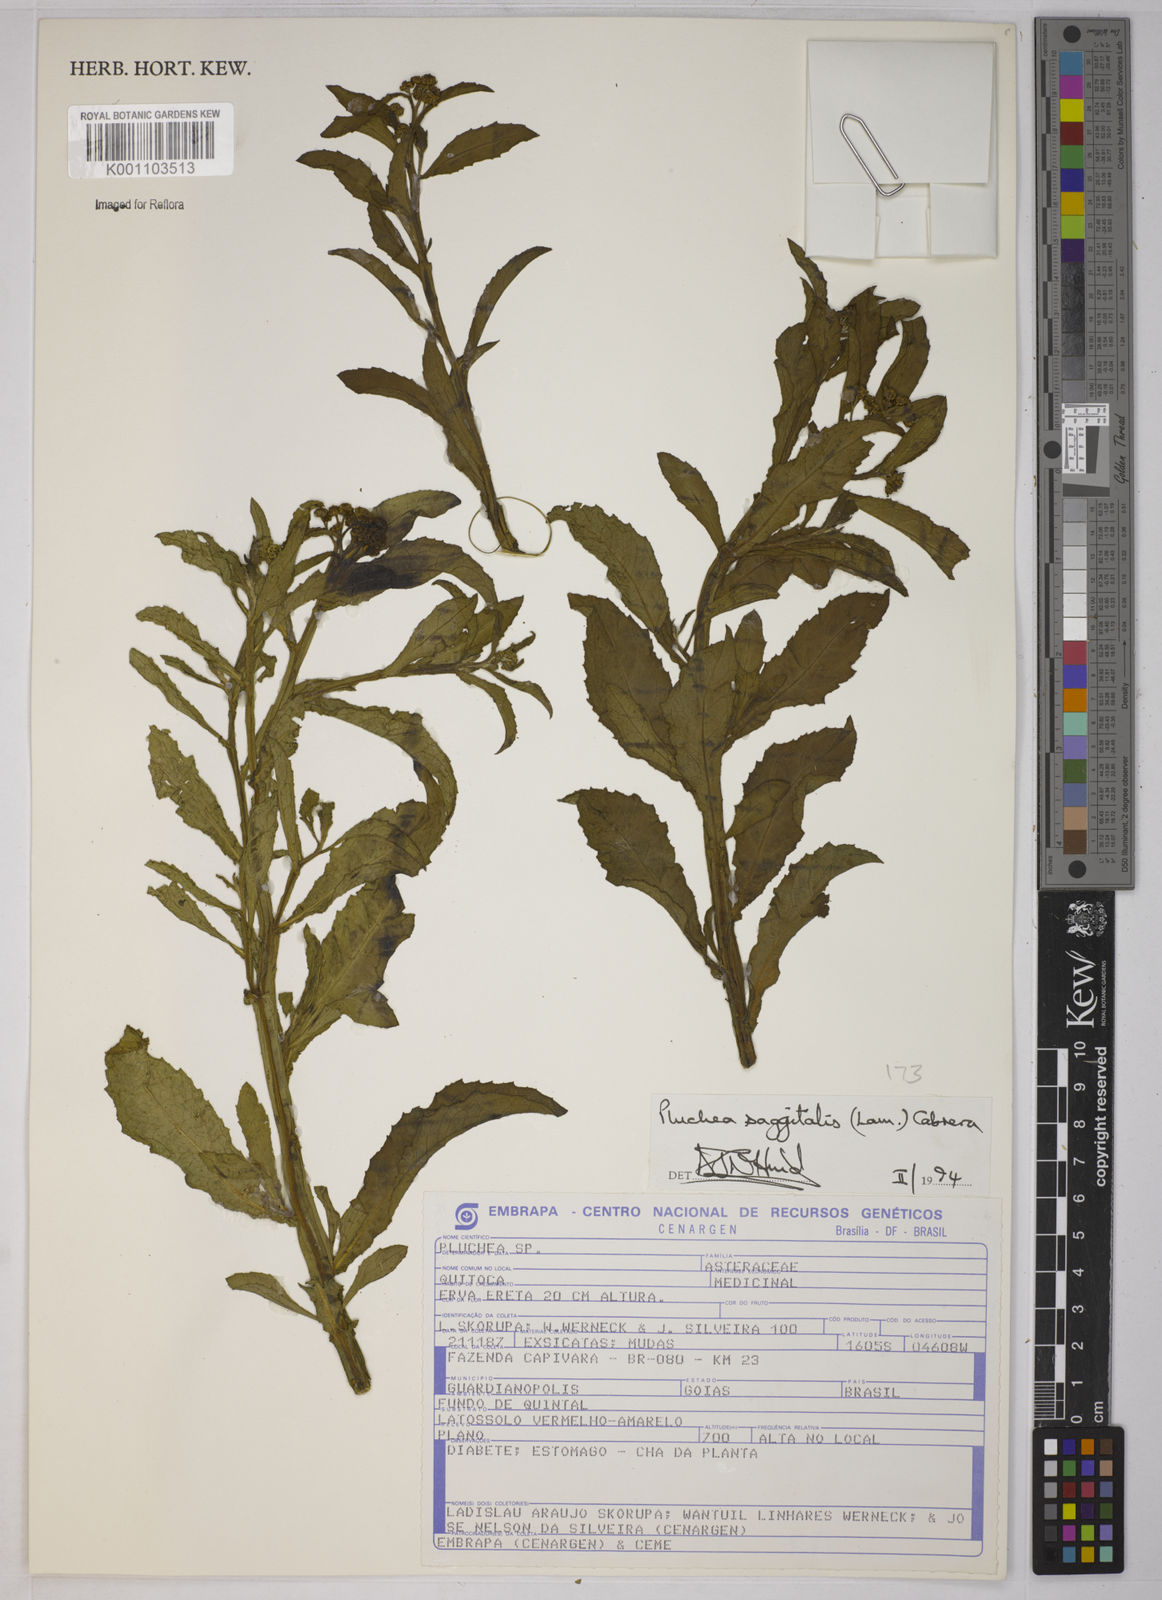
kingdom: Plantae
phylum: Tracheophyta
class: Magnoliopsida
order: Asterales
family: Asteraceae
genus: Pluchea
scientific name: Pluchea sagittalis
